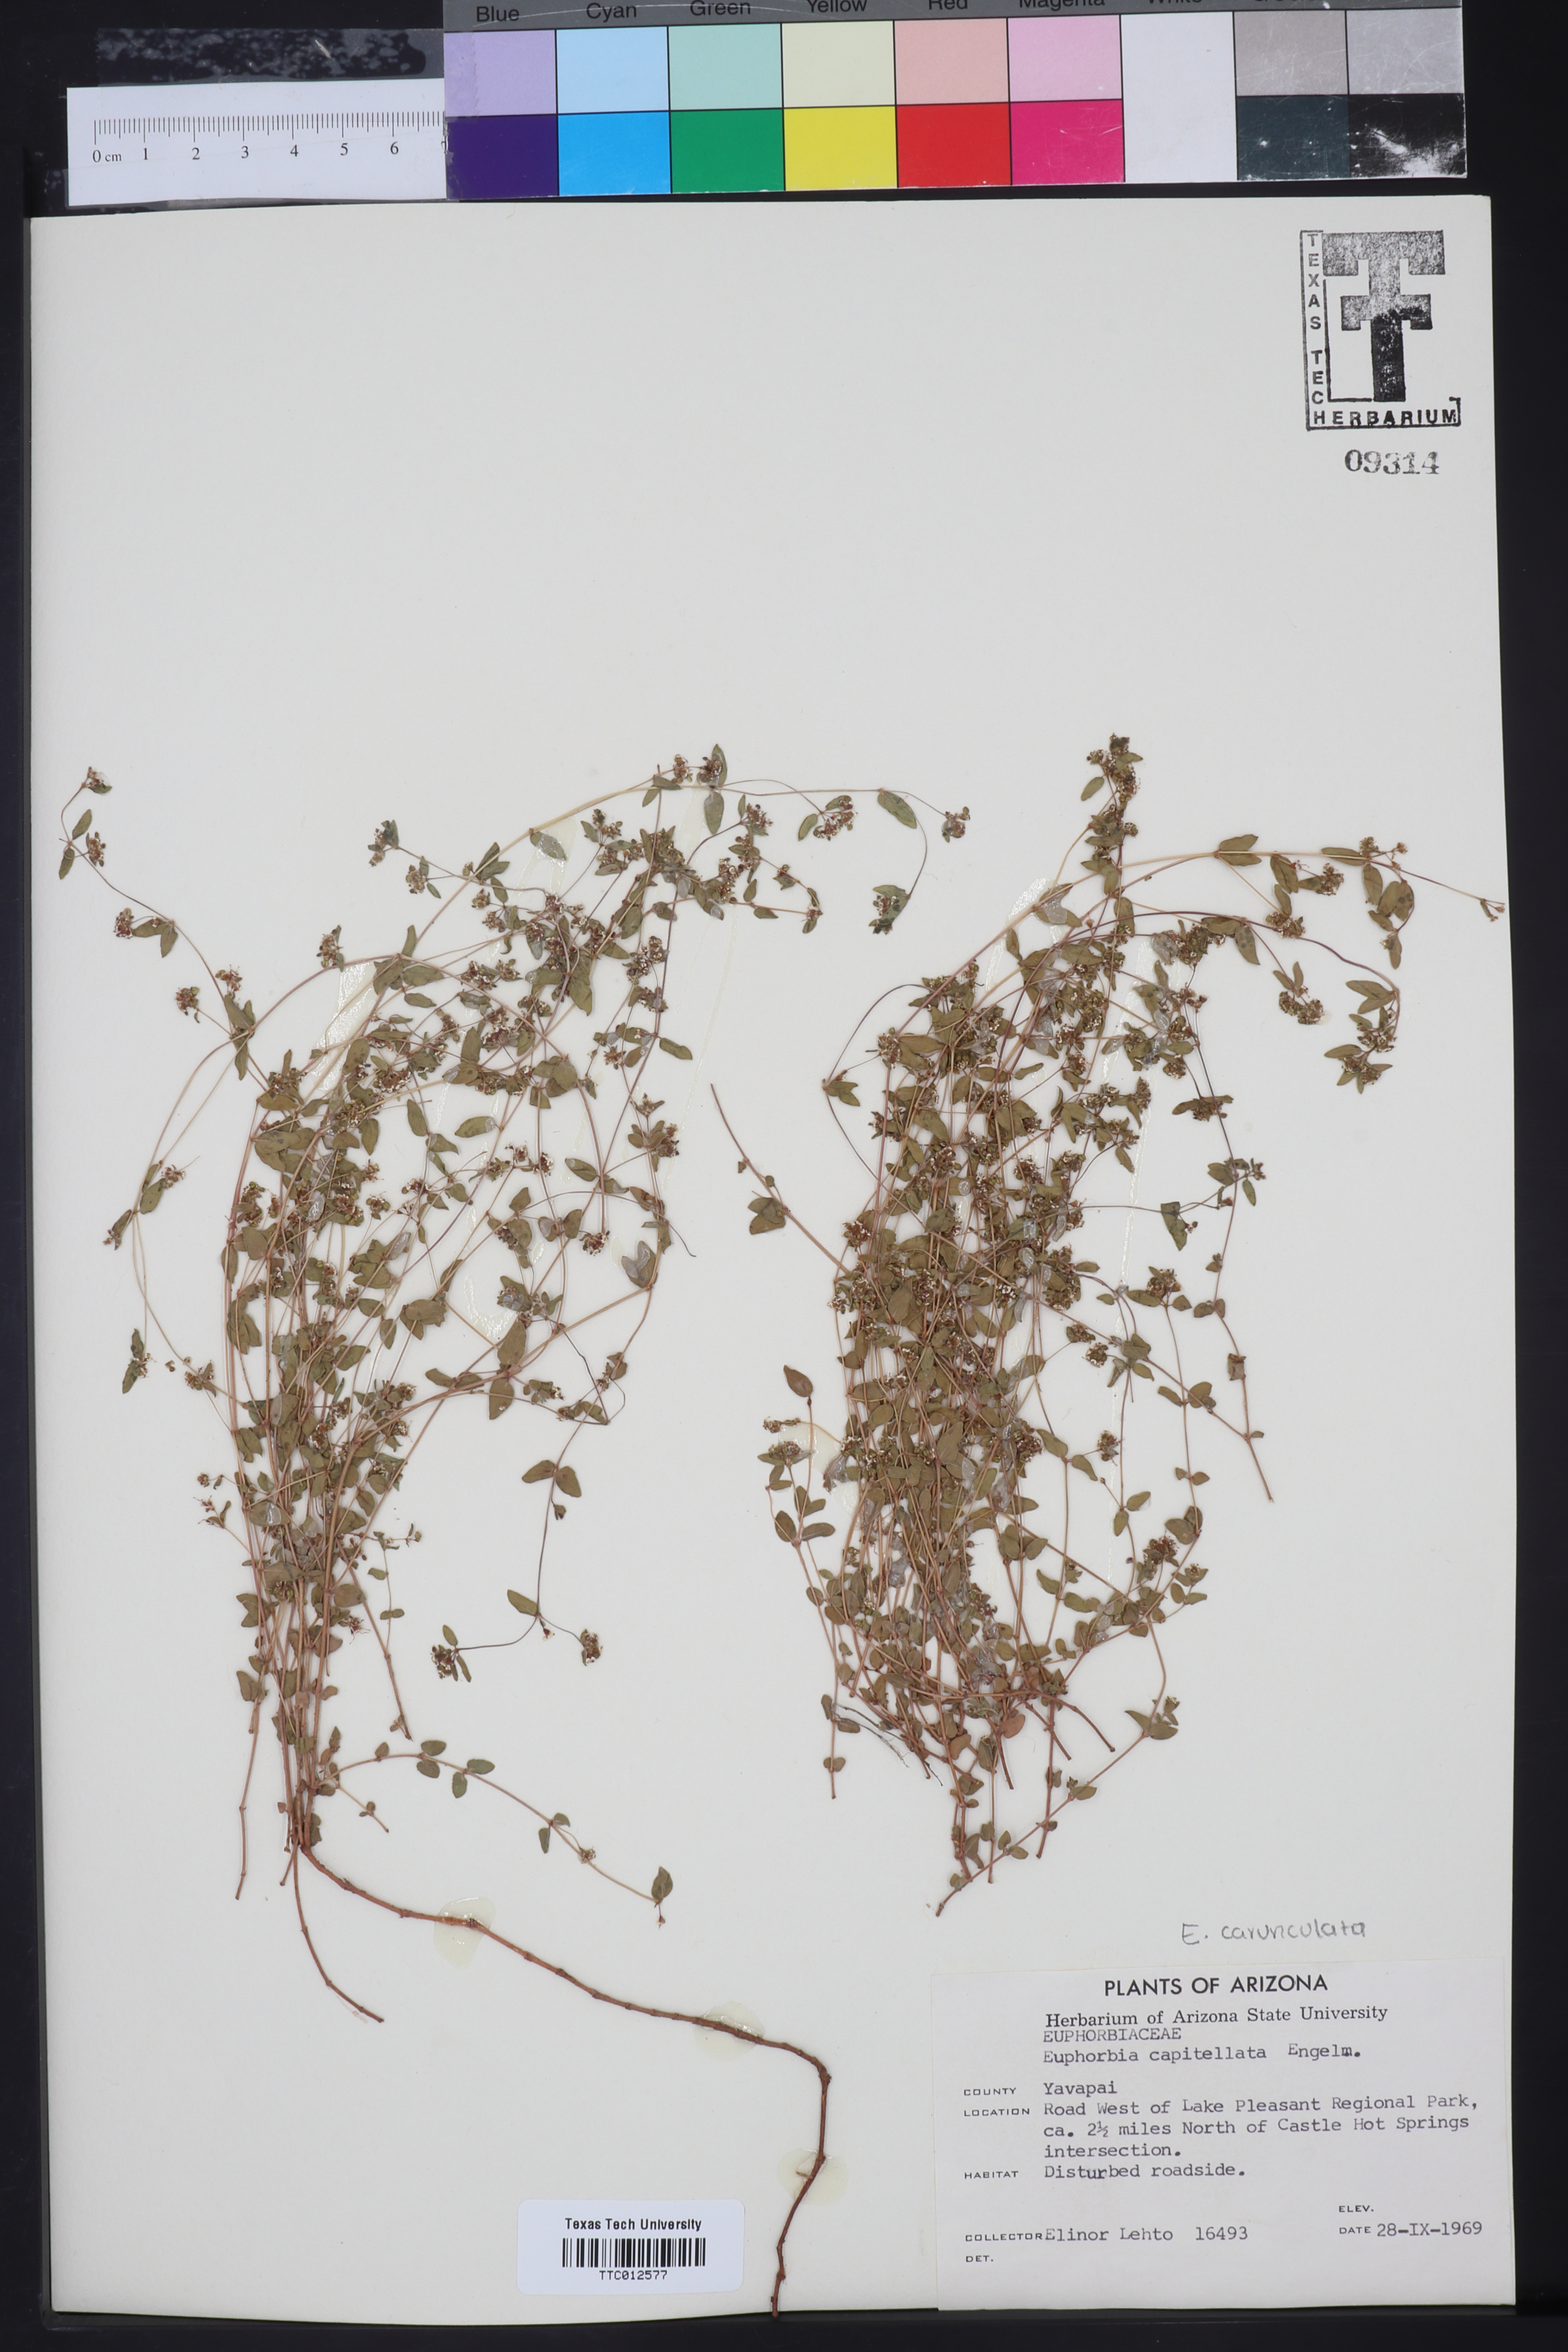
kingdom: Plantae
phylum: Tracheophyta
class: Magnoliopsida
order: Malpighiales
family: Euphorbiaceae
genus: Euphorbia
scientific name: Euphorbia capitellata
